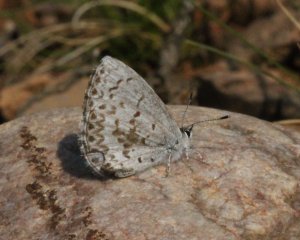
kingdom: Animalia
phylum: Arthropoda
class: Insecta
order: Lepidoptera
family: Lycaenidae
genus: Celastrina
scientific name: Celastrina serotina
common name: Cherry Gall Azure
